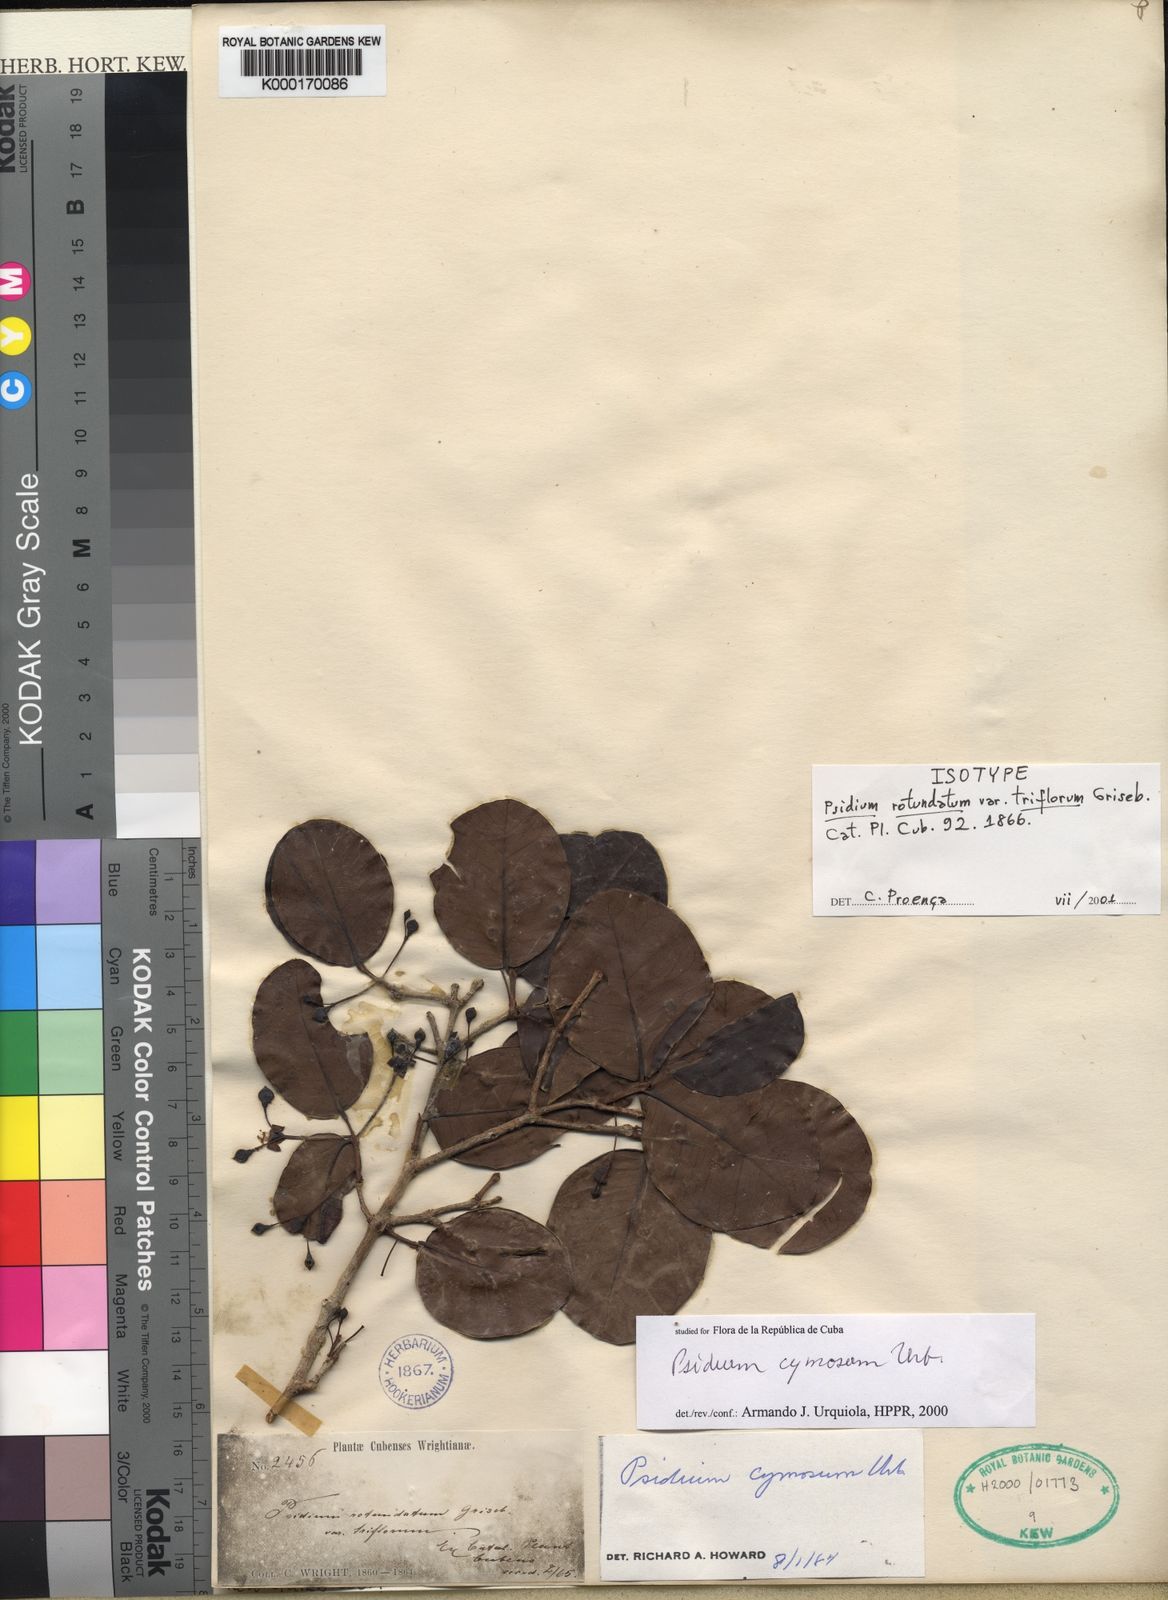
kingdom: Plantae
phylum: Tracheophyta
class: Magnoliopsida
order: Myrtales
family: Myrtaceae
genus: Psidium
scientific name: Psidium cymosum
